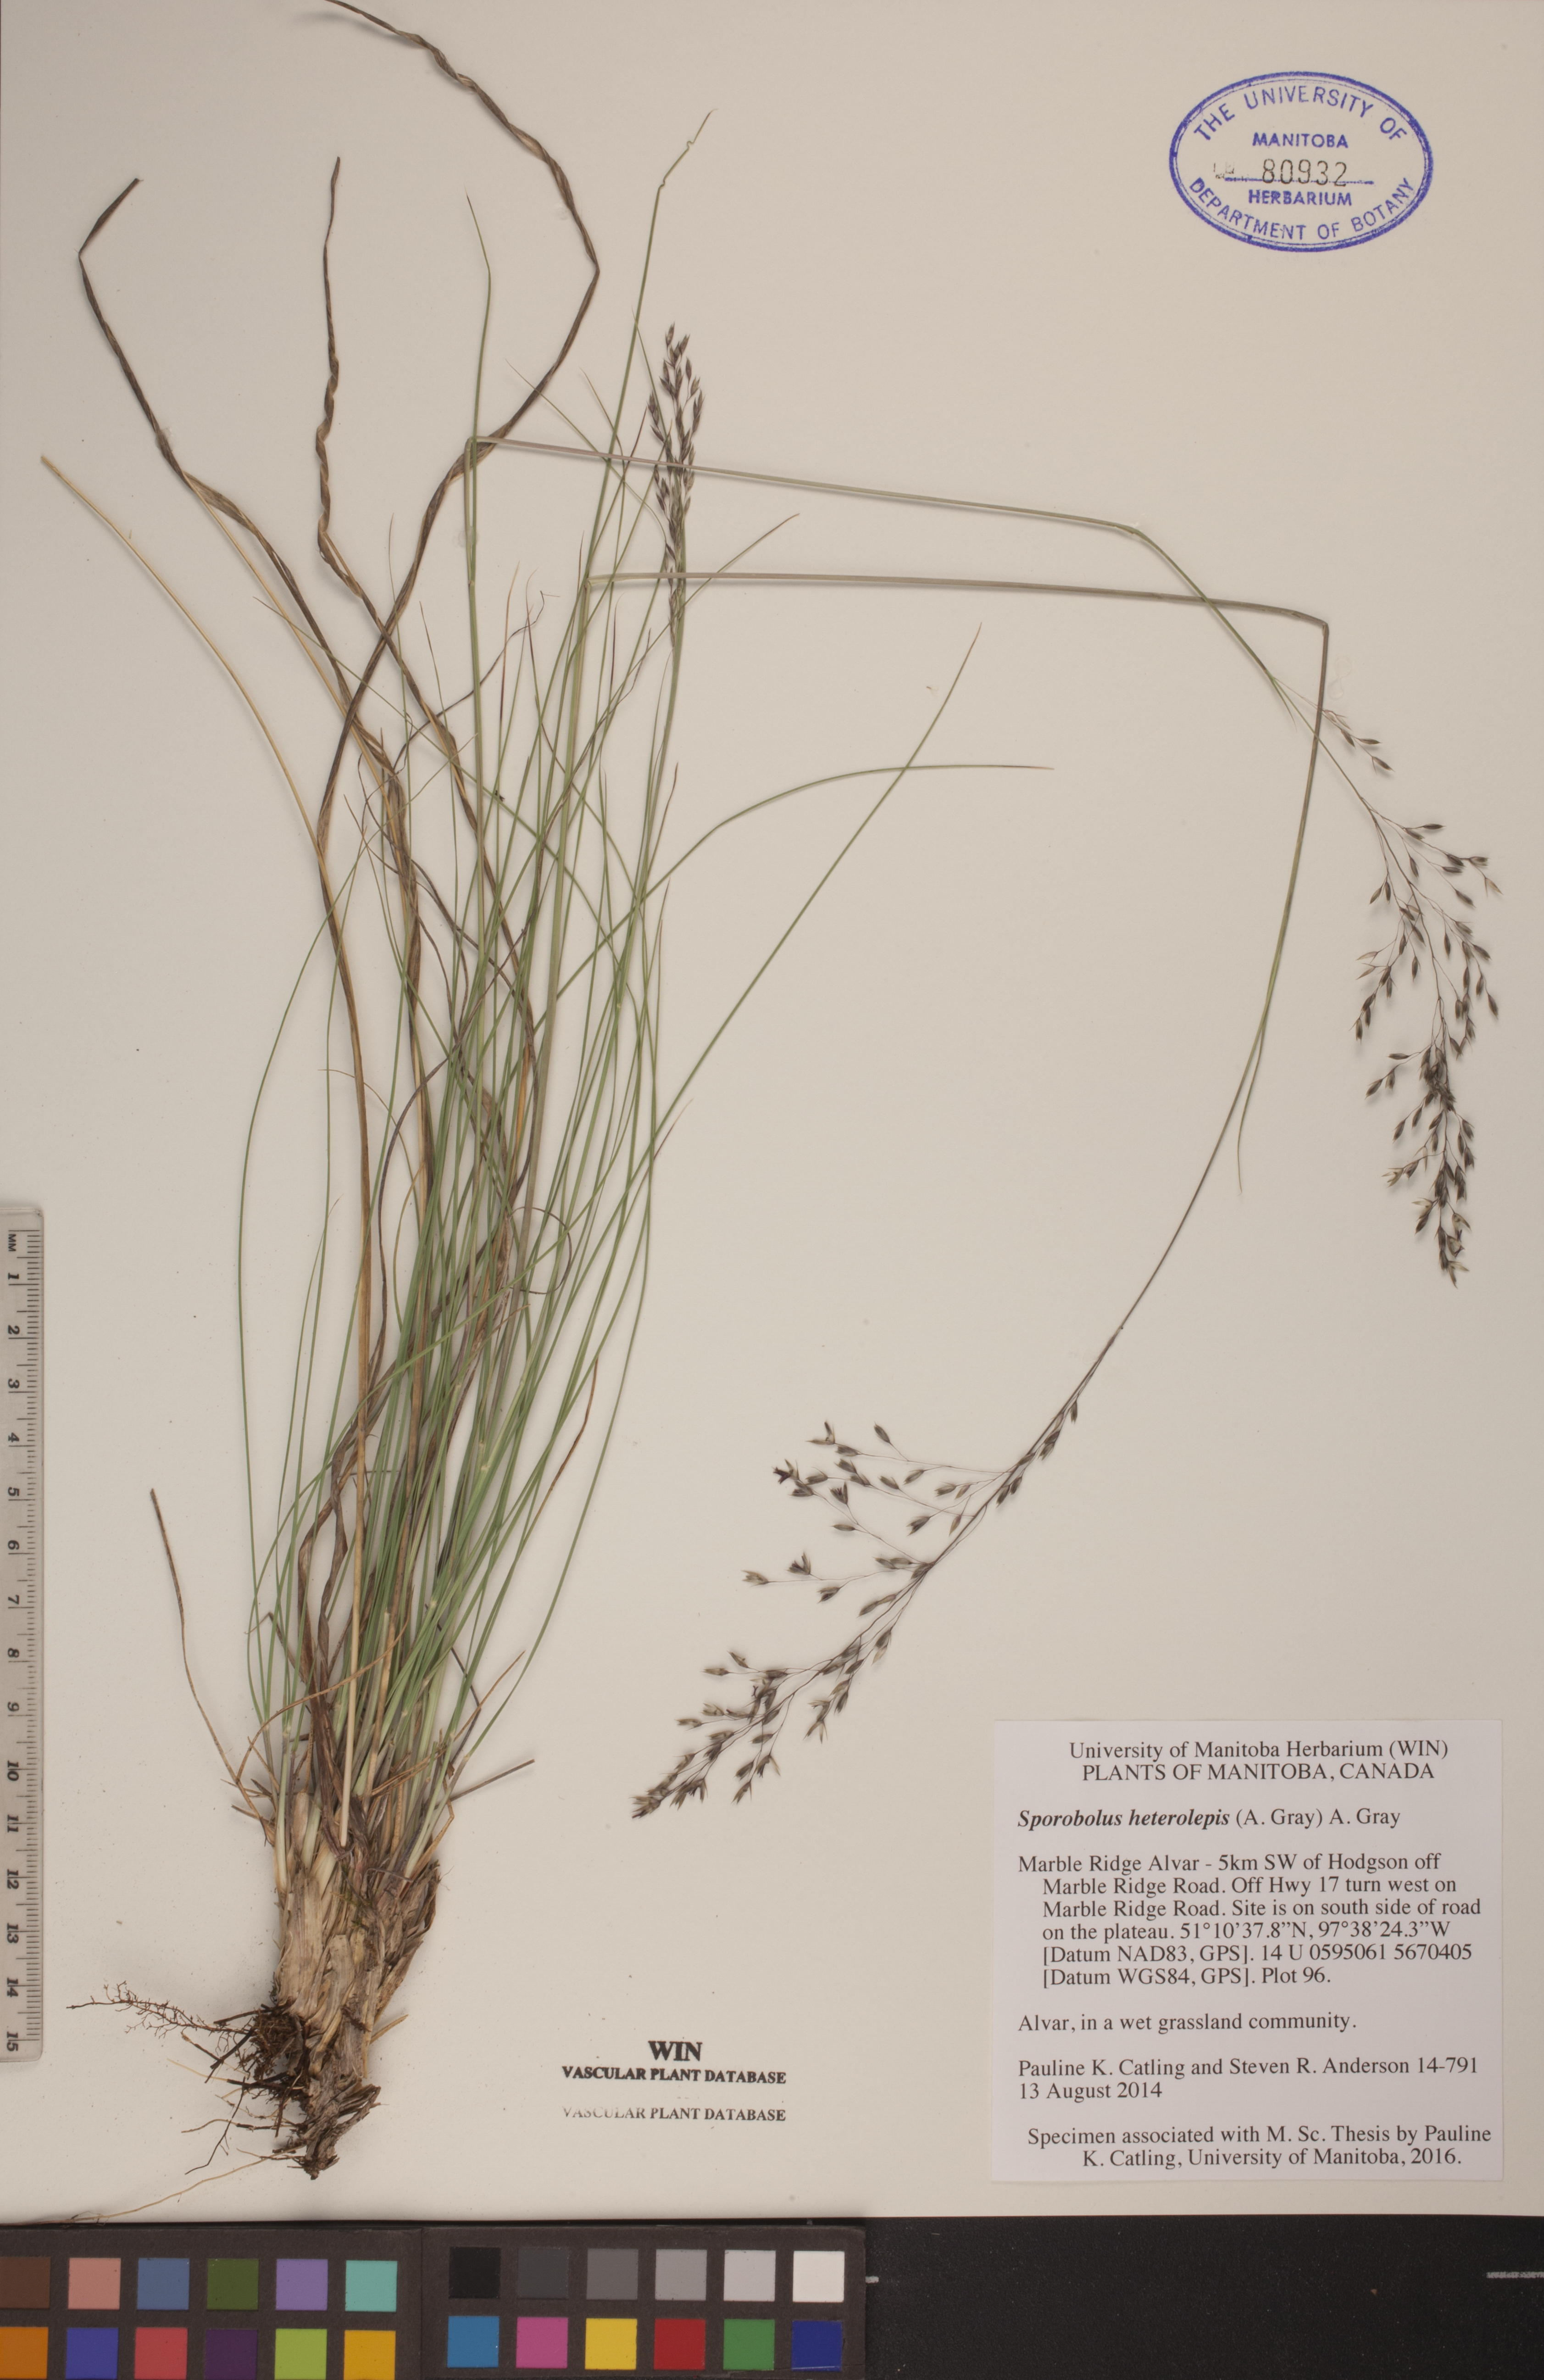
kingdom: Plantae
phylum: Tracheophyta
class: Liliopsida
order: Poales
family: Poaceae
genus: Sporobolus
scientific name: Sporobolus heterolepis
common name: Prairie dropseed
